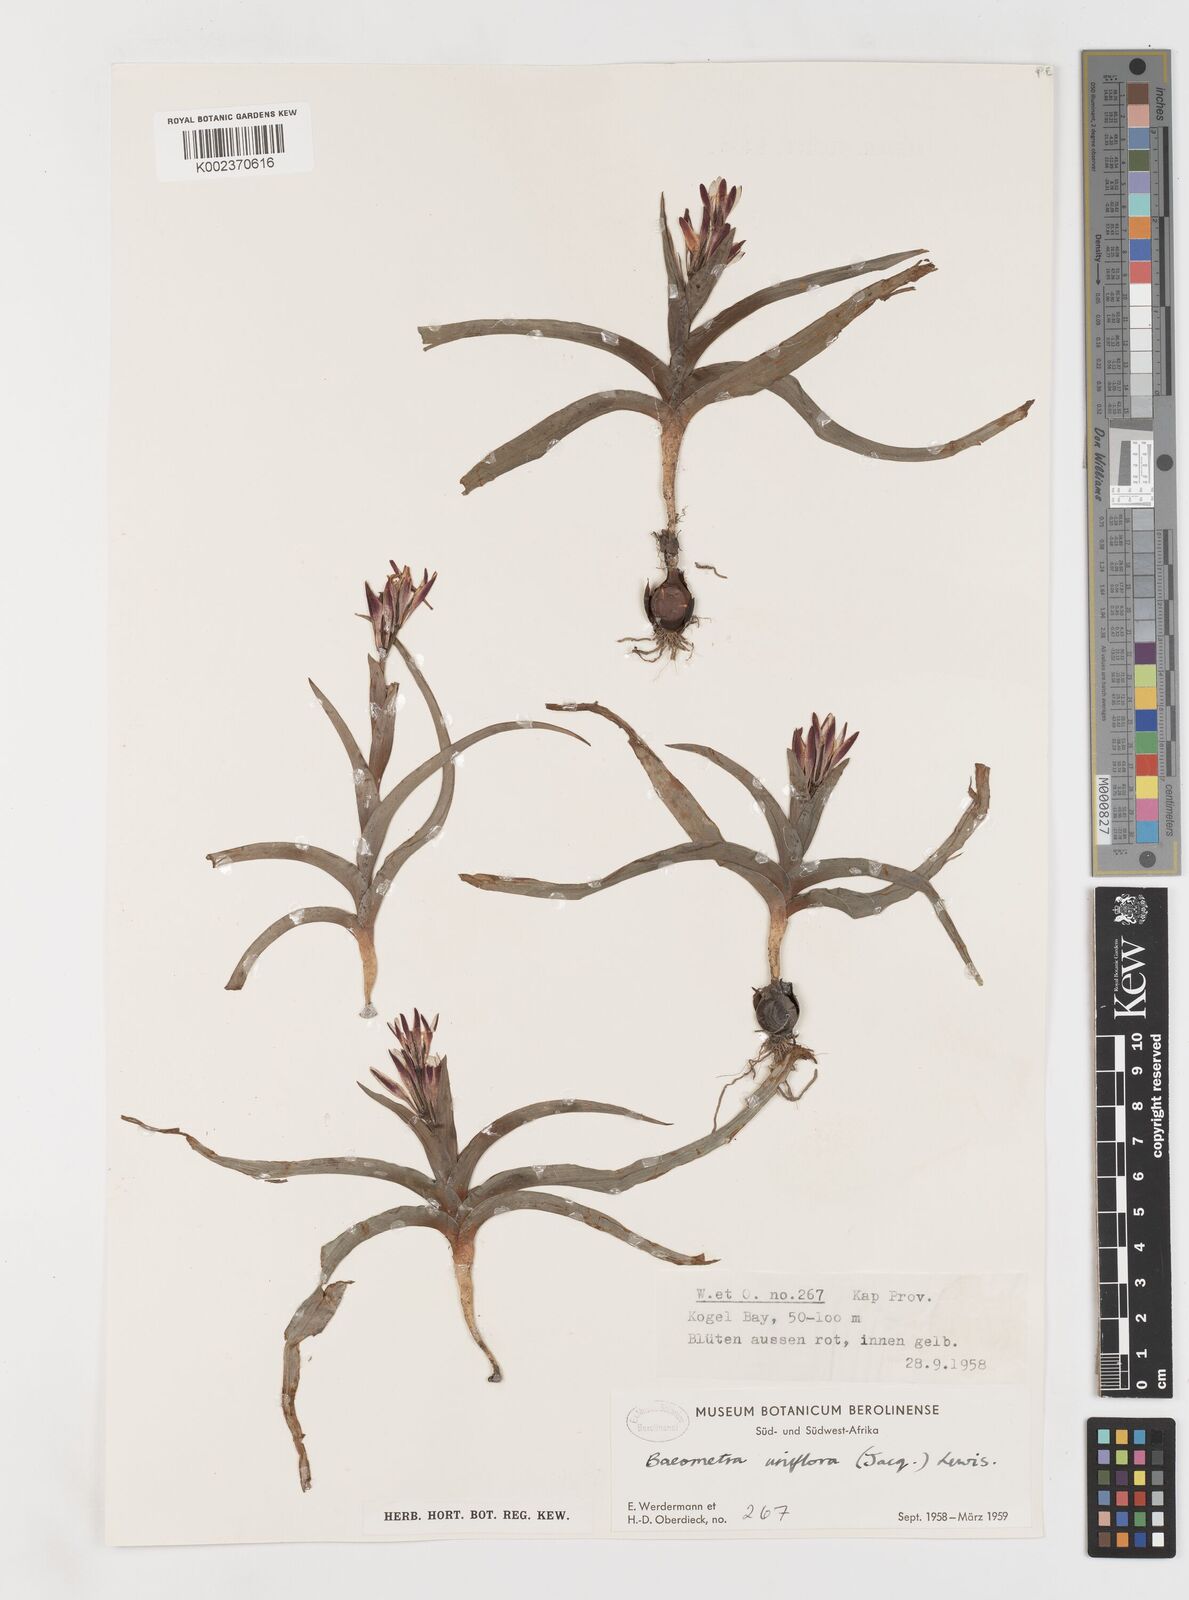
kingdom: Plantae
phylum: Tracheophyta
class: Liliopsida
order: Liliales
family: Colchicaceae
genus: Baeometra
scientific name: Baeometra uniflora
